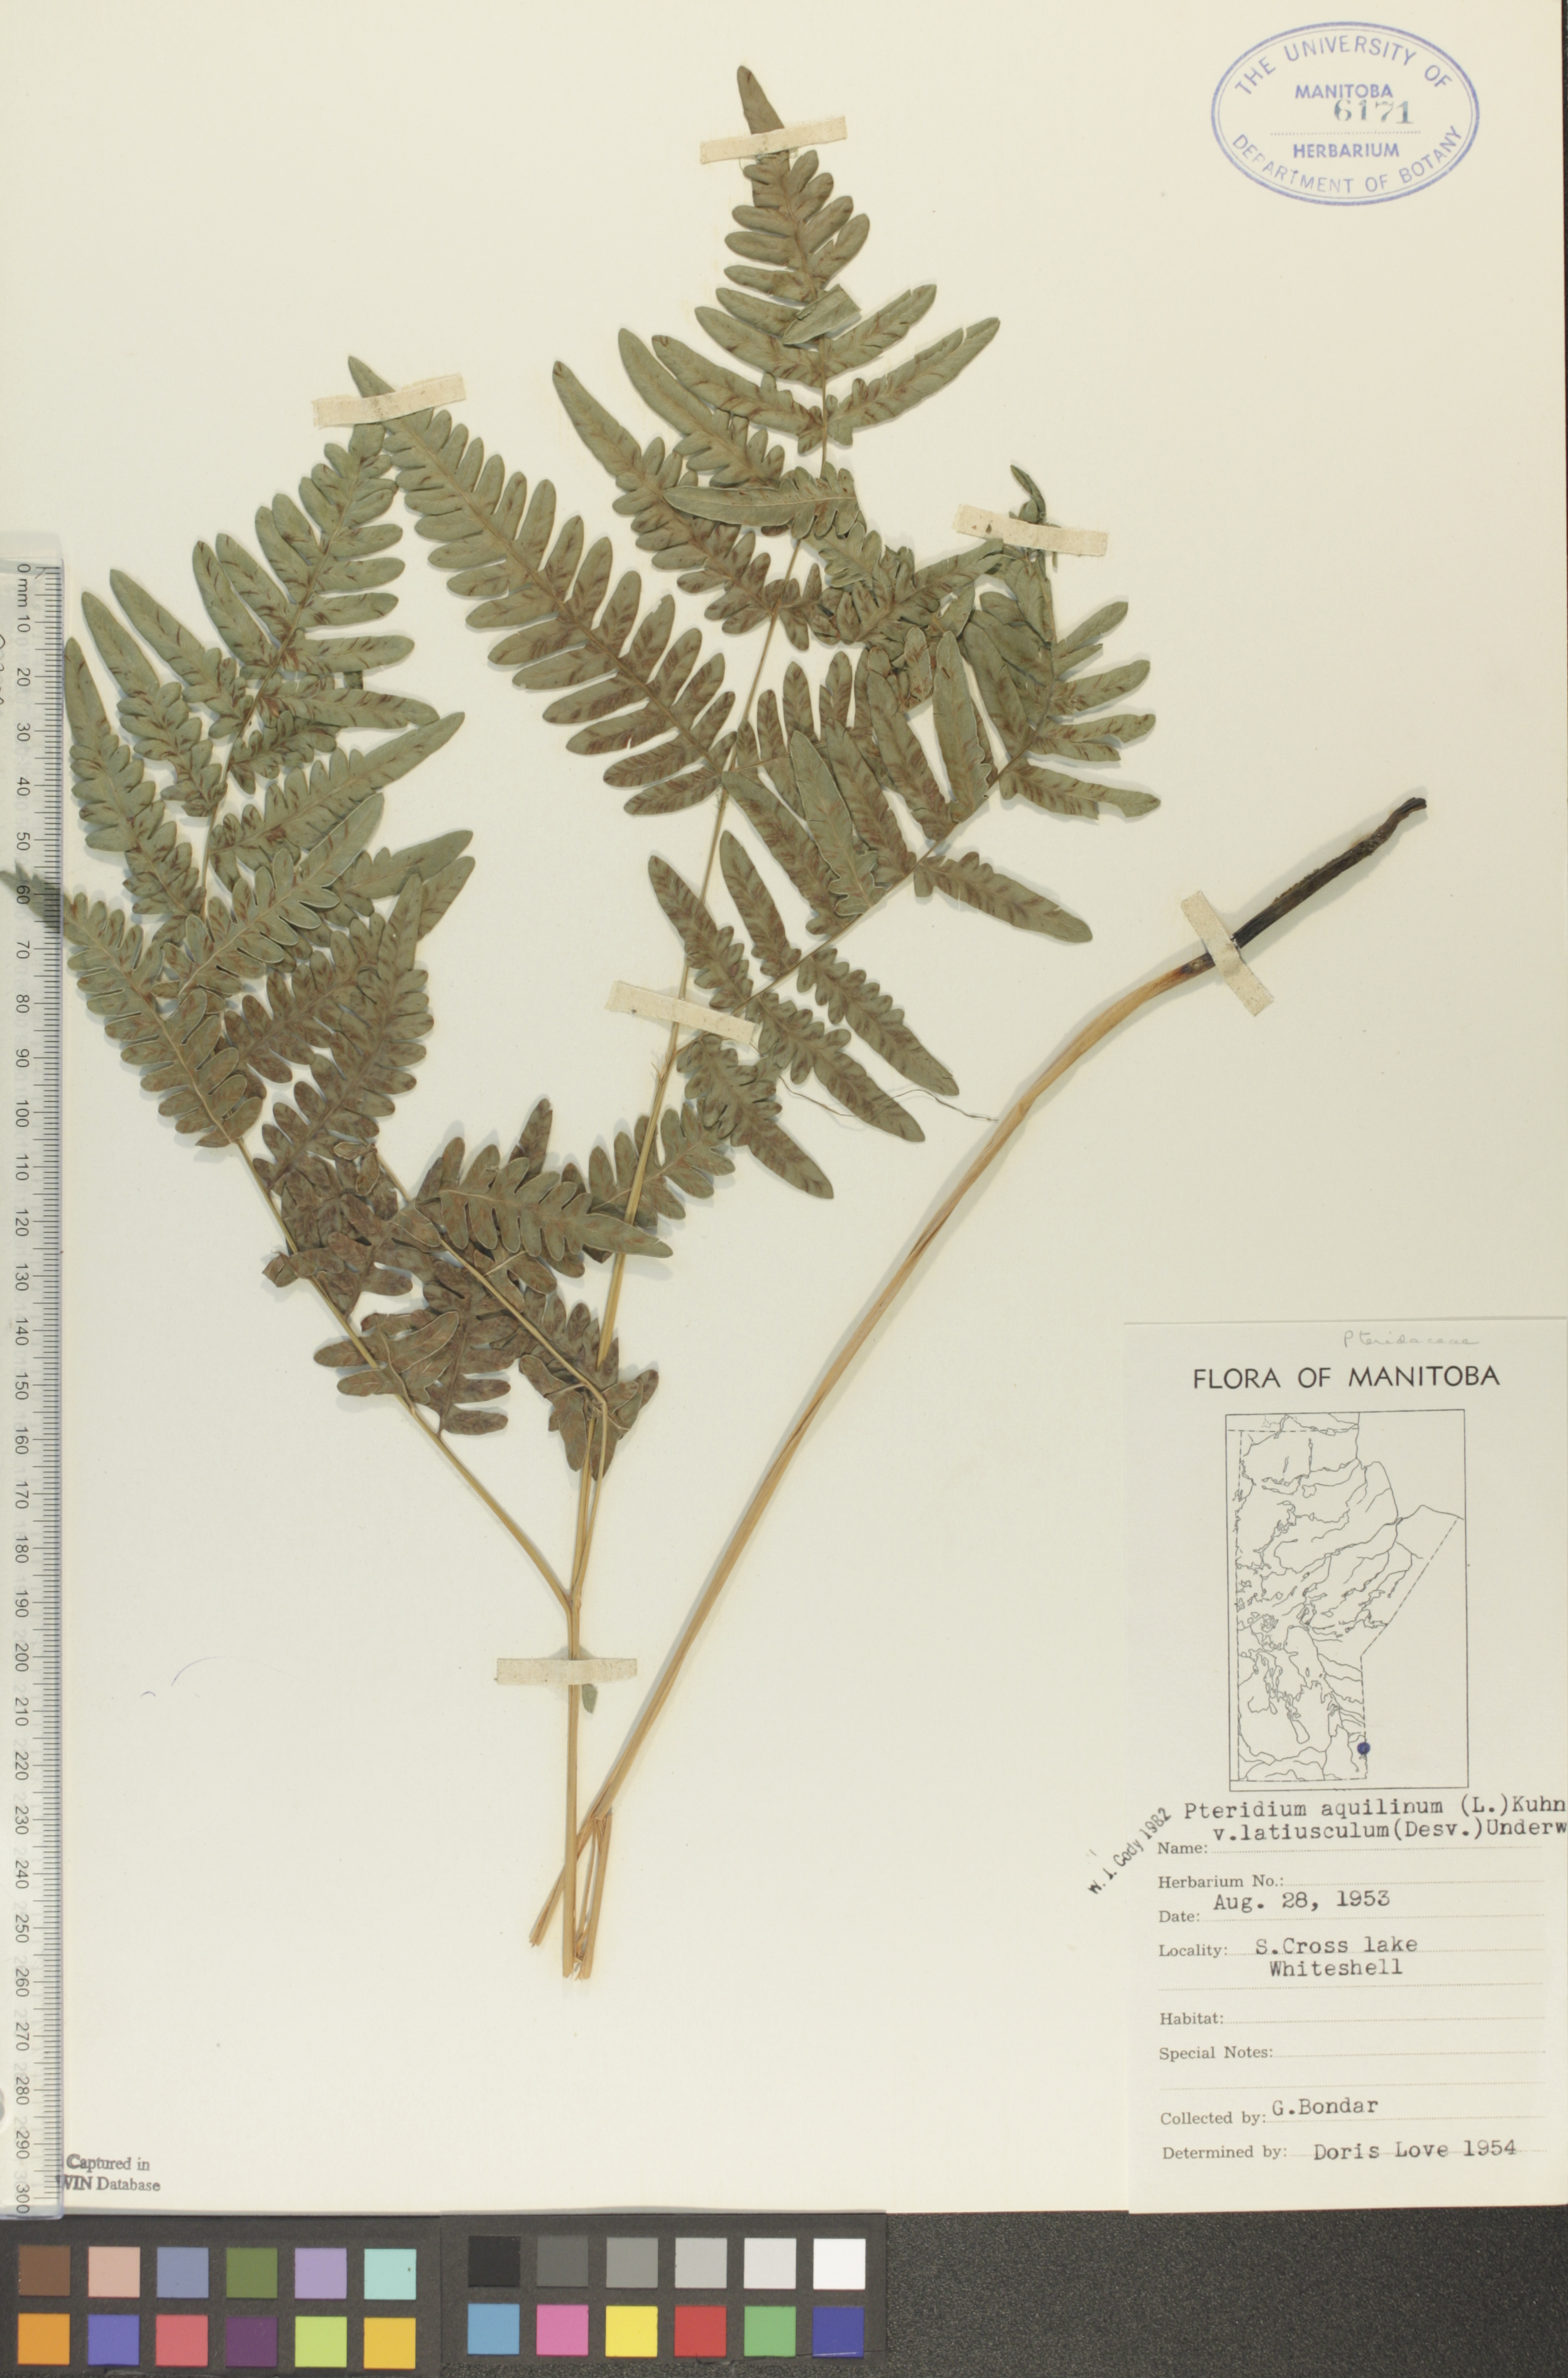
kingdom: Plantae
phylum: Tracheophyta
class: Polypodiopsida
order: Polypodiales
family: Dennstaedtiaceae
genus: Pteridium
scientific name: Pteridium aquilinum
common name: Bracken
